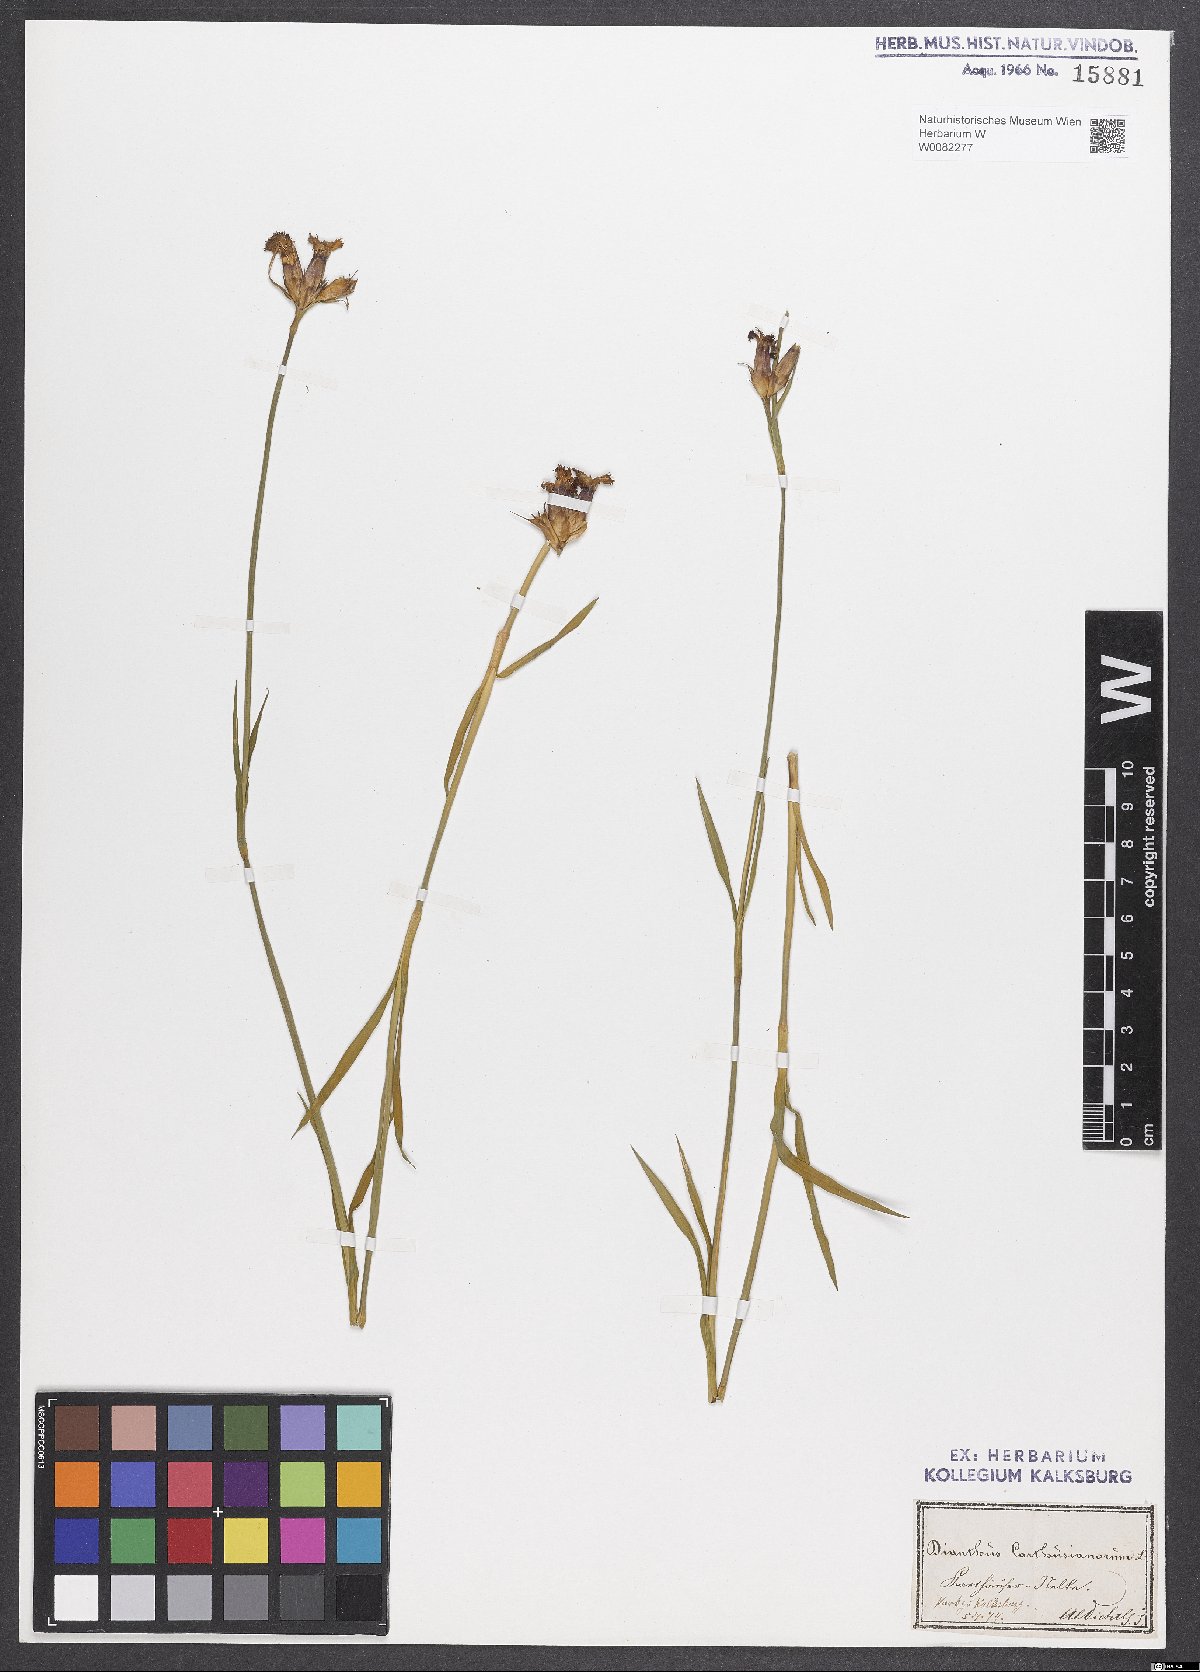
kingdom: Plantae
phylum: Tracheophyta
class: Magnoliopsida
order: Caryophyllales
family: Caryophyllaceae
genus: Dianthus
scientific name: Dianthus carthusianorum
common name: Carthusian pink
